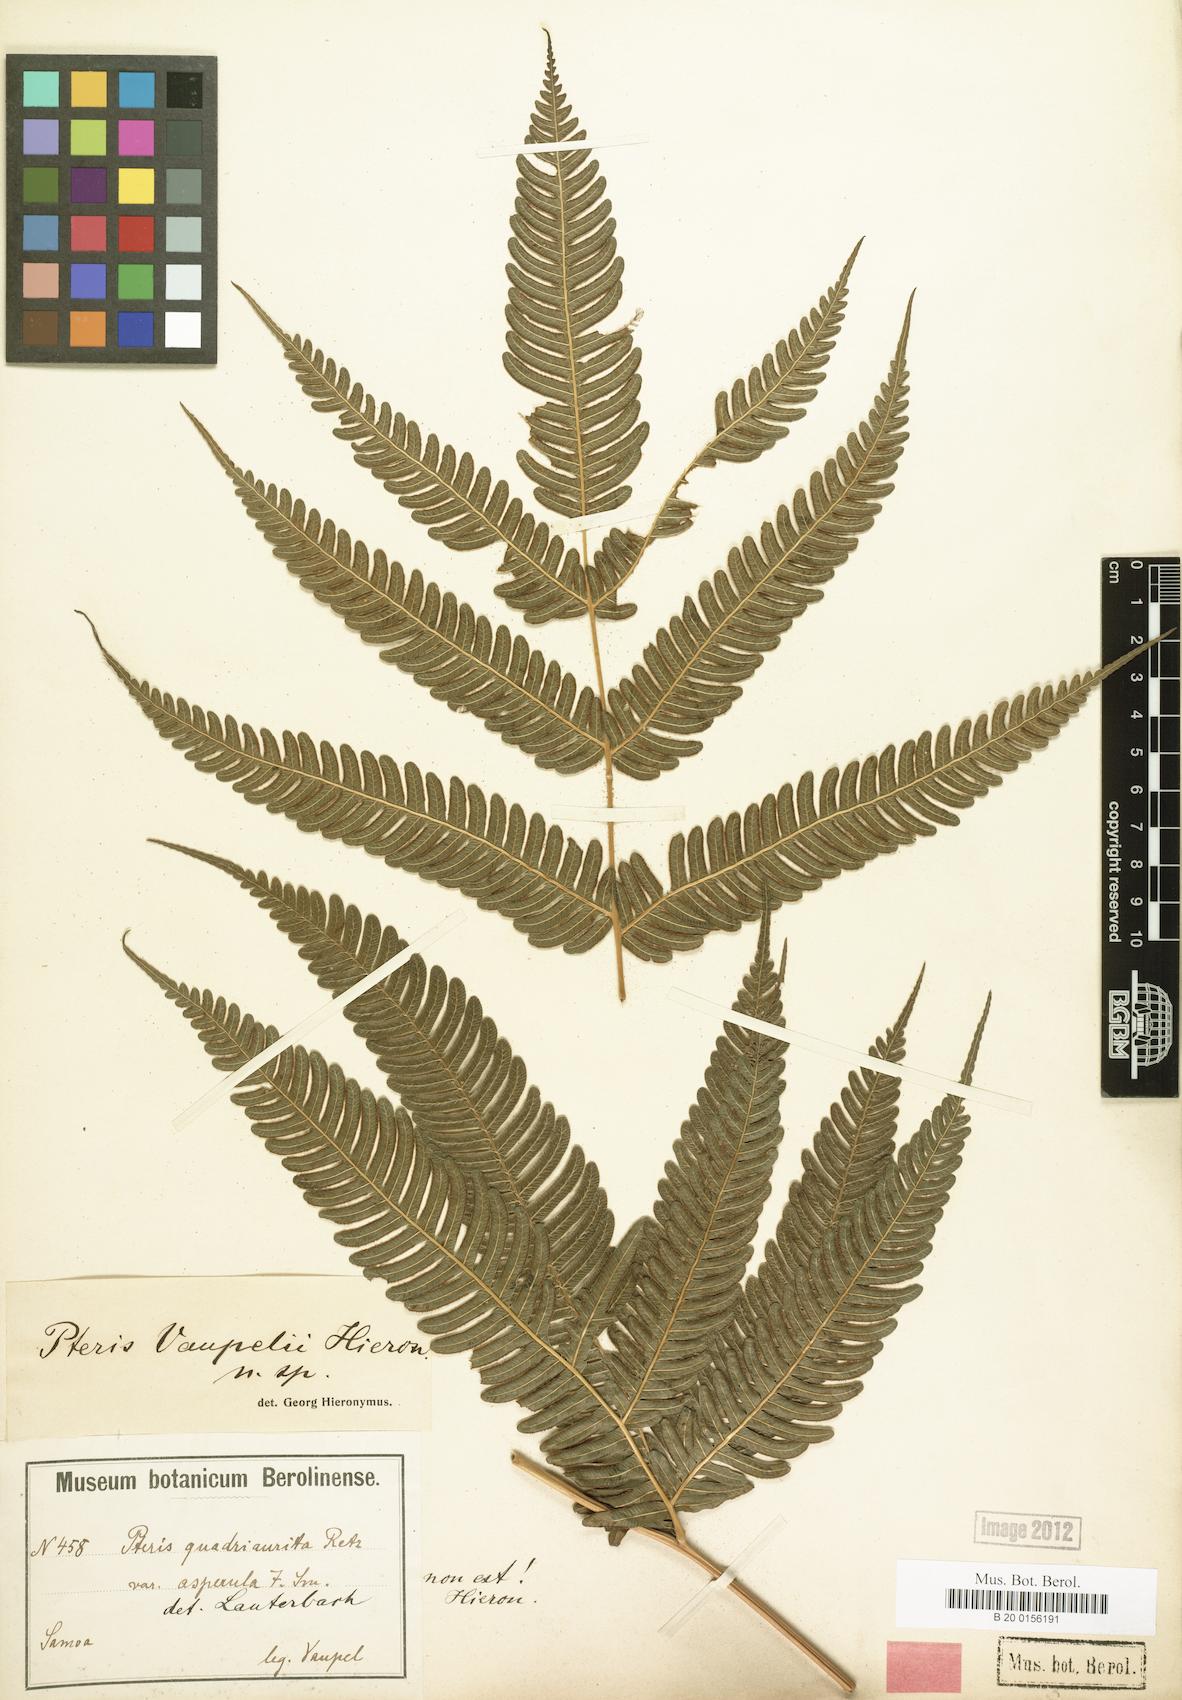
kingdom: Plantae
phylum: Tracheophyta
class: Polypodiopsida
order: Polypodiales
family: Pteridaceae
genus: Pteris
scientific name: Pteris vaupelii
